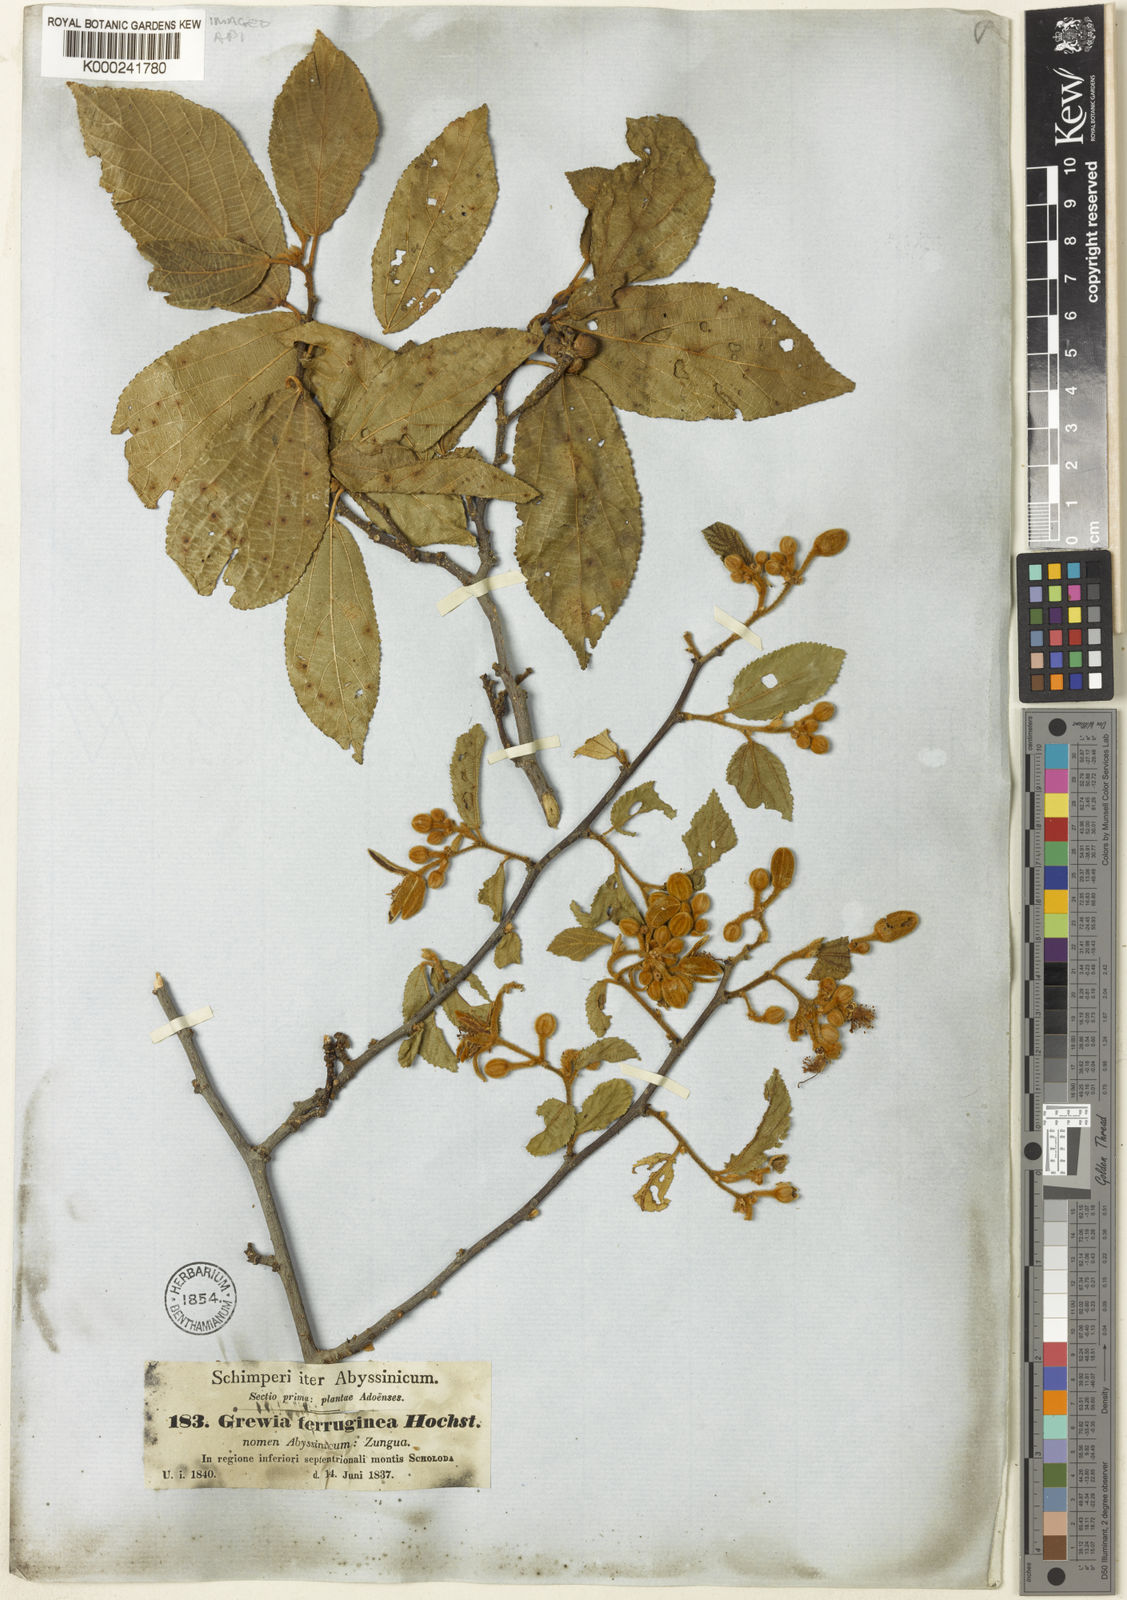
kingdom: Plantae
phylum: Tracheophyta
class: Magnoliopsida
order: Malvales
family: Malvaceae
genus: Grewia
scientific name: Grewia ferruginea
